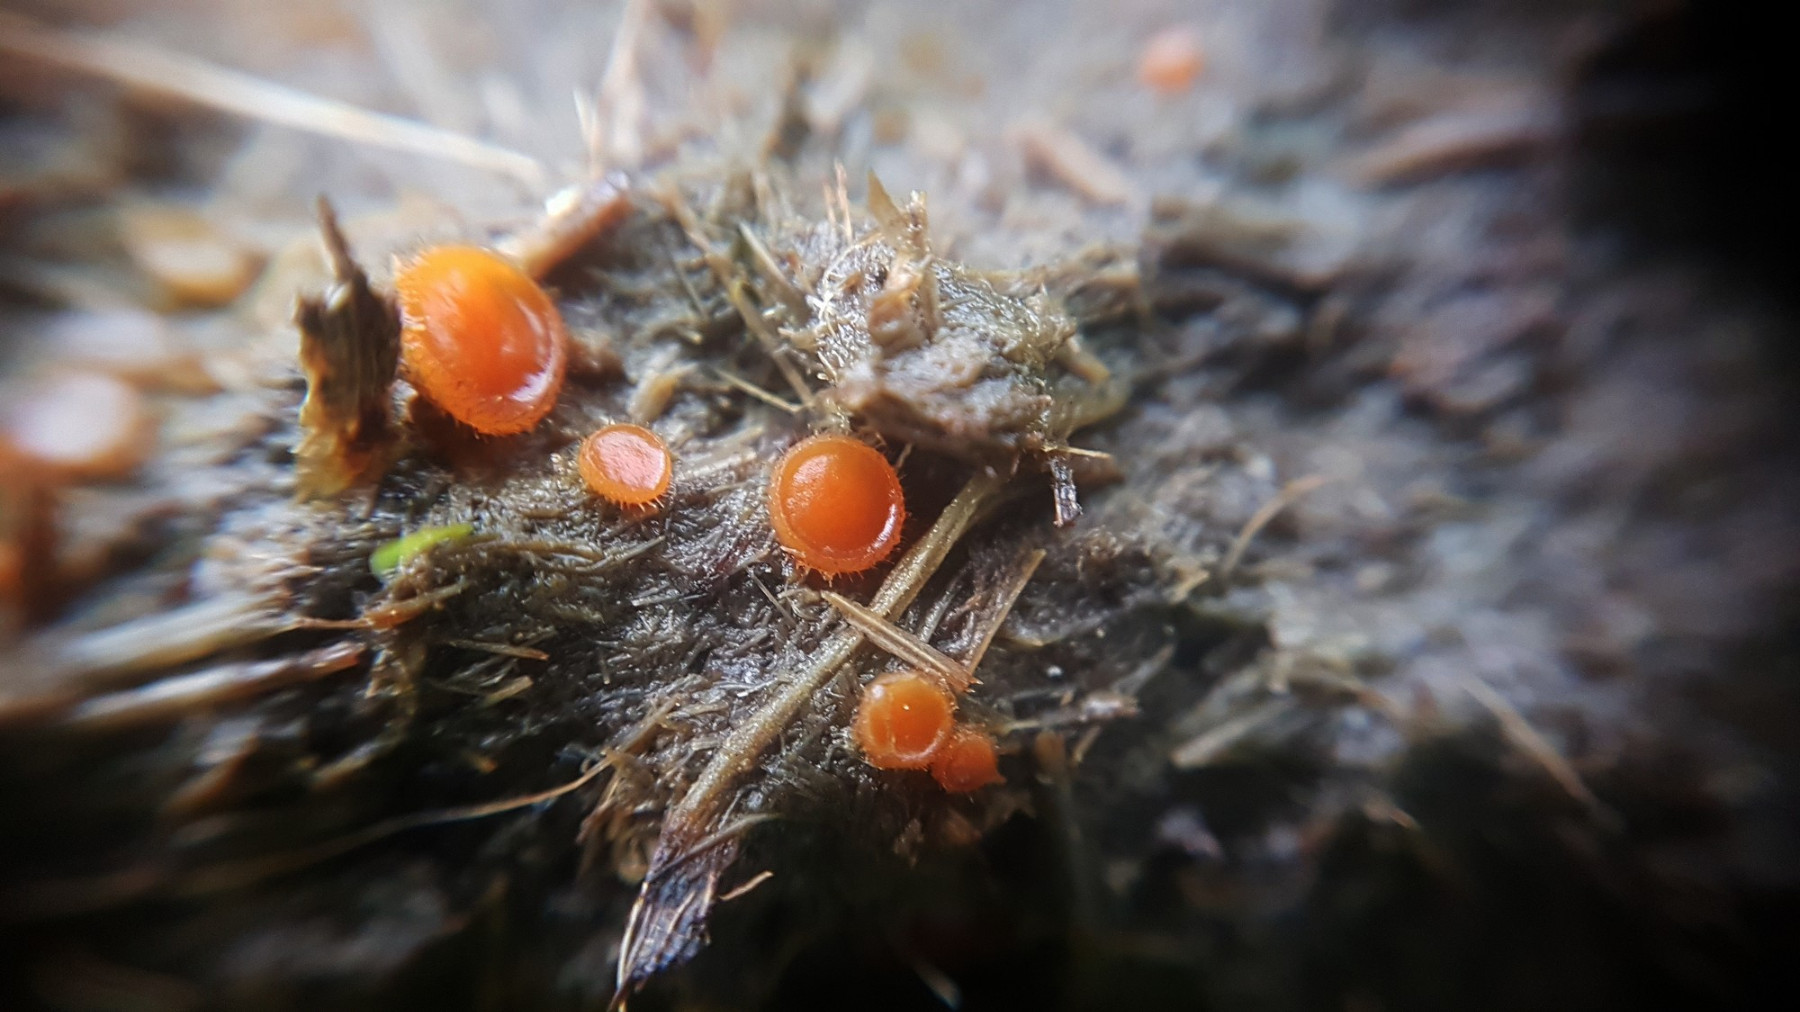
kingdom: Fungi
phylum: Ascomycota
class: Pezizomycetes
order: Pezizales
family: Pyronemataceae
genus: Cheilymenia
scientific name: Cheilymenia
